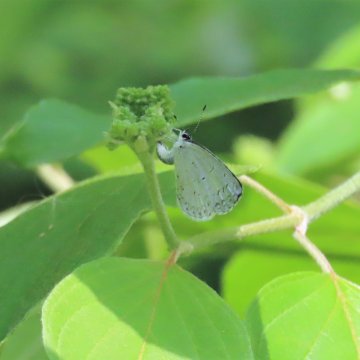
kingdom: Animalia
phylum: Arthropoda
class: Insecta
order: Lepidoptera
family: Lycaenidae
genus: Celastrina
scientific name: Celastrina
